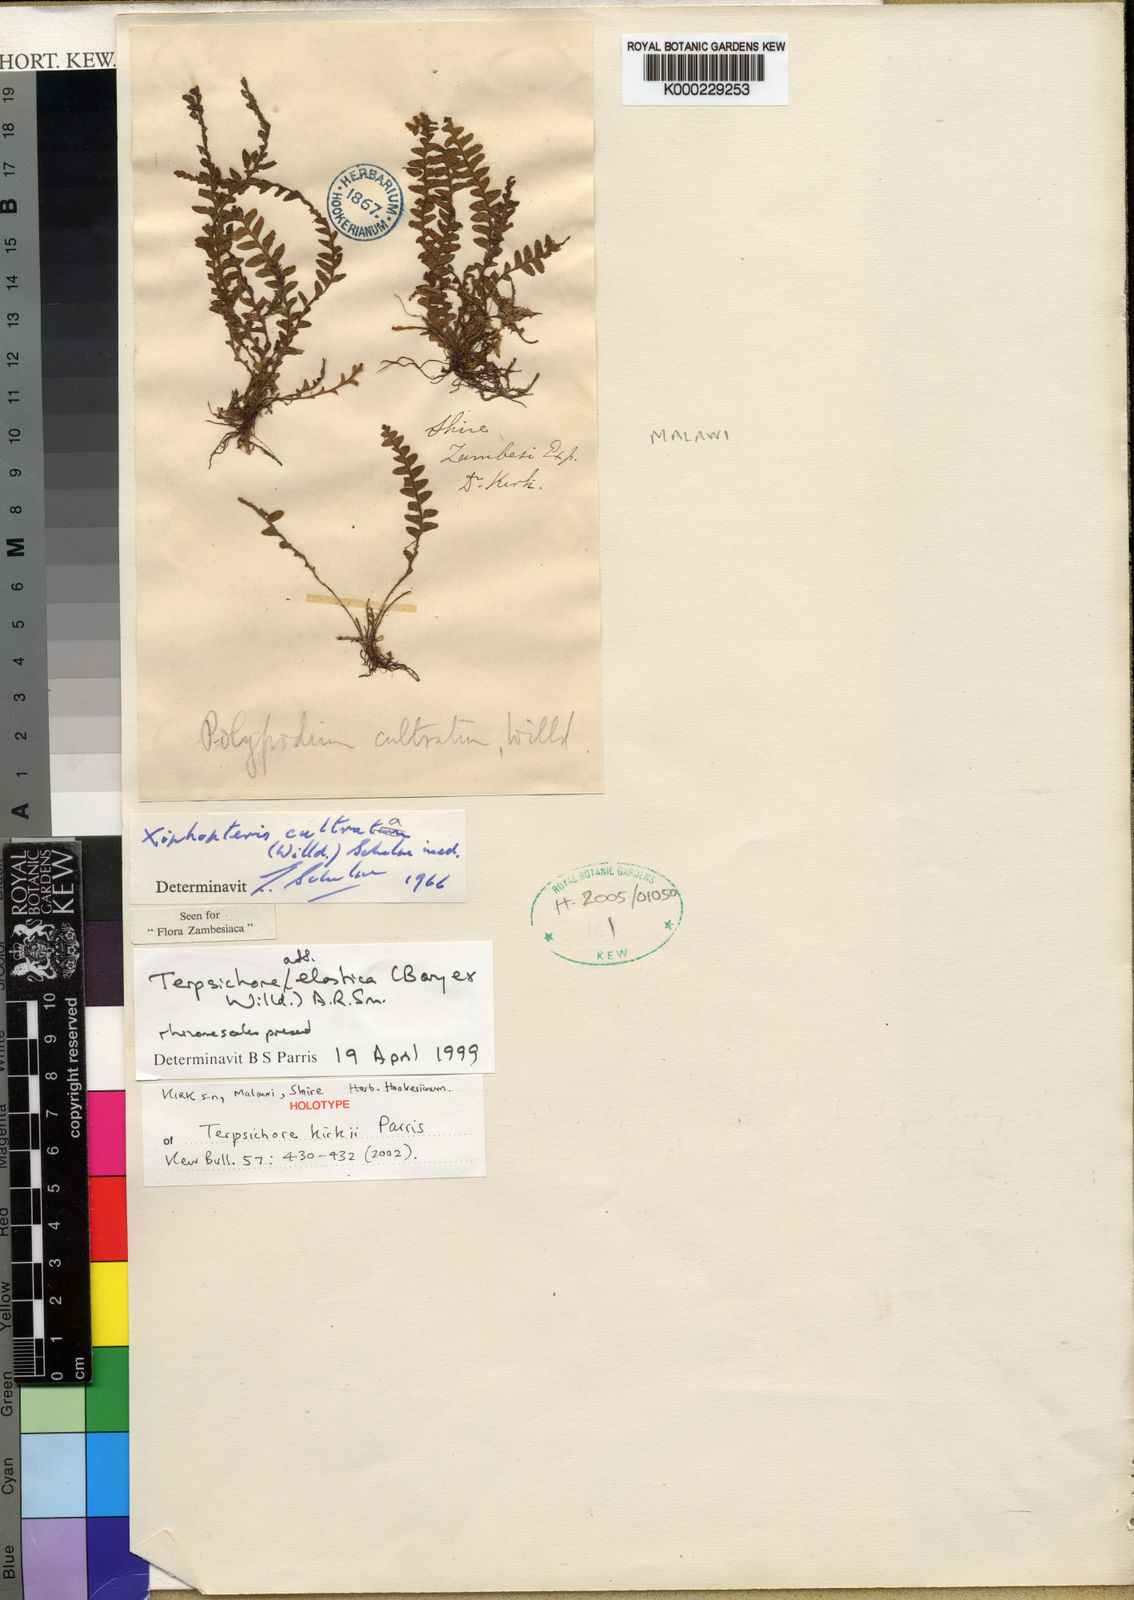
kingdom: Plantae
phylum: Tracheophyta
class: Polypodiopsida
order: Polypodiales
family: Polypodiaceae
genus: Alansmia
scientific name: Alansmia kirkii
